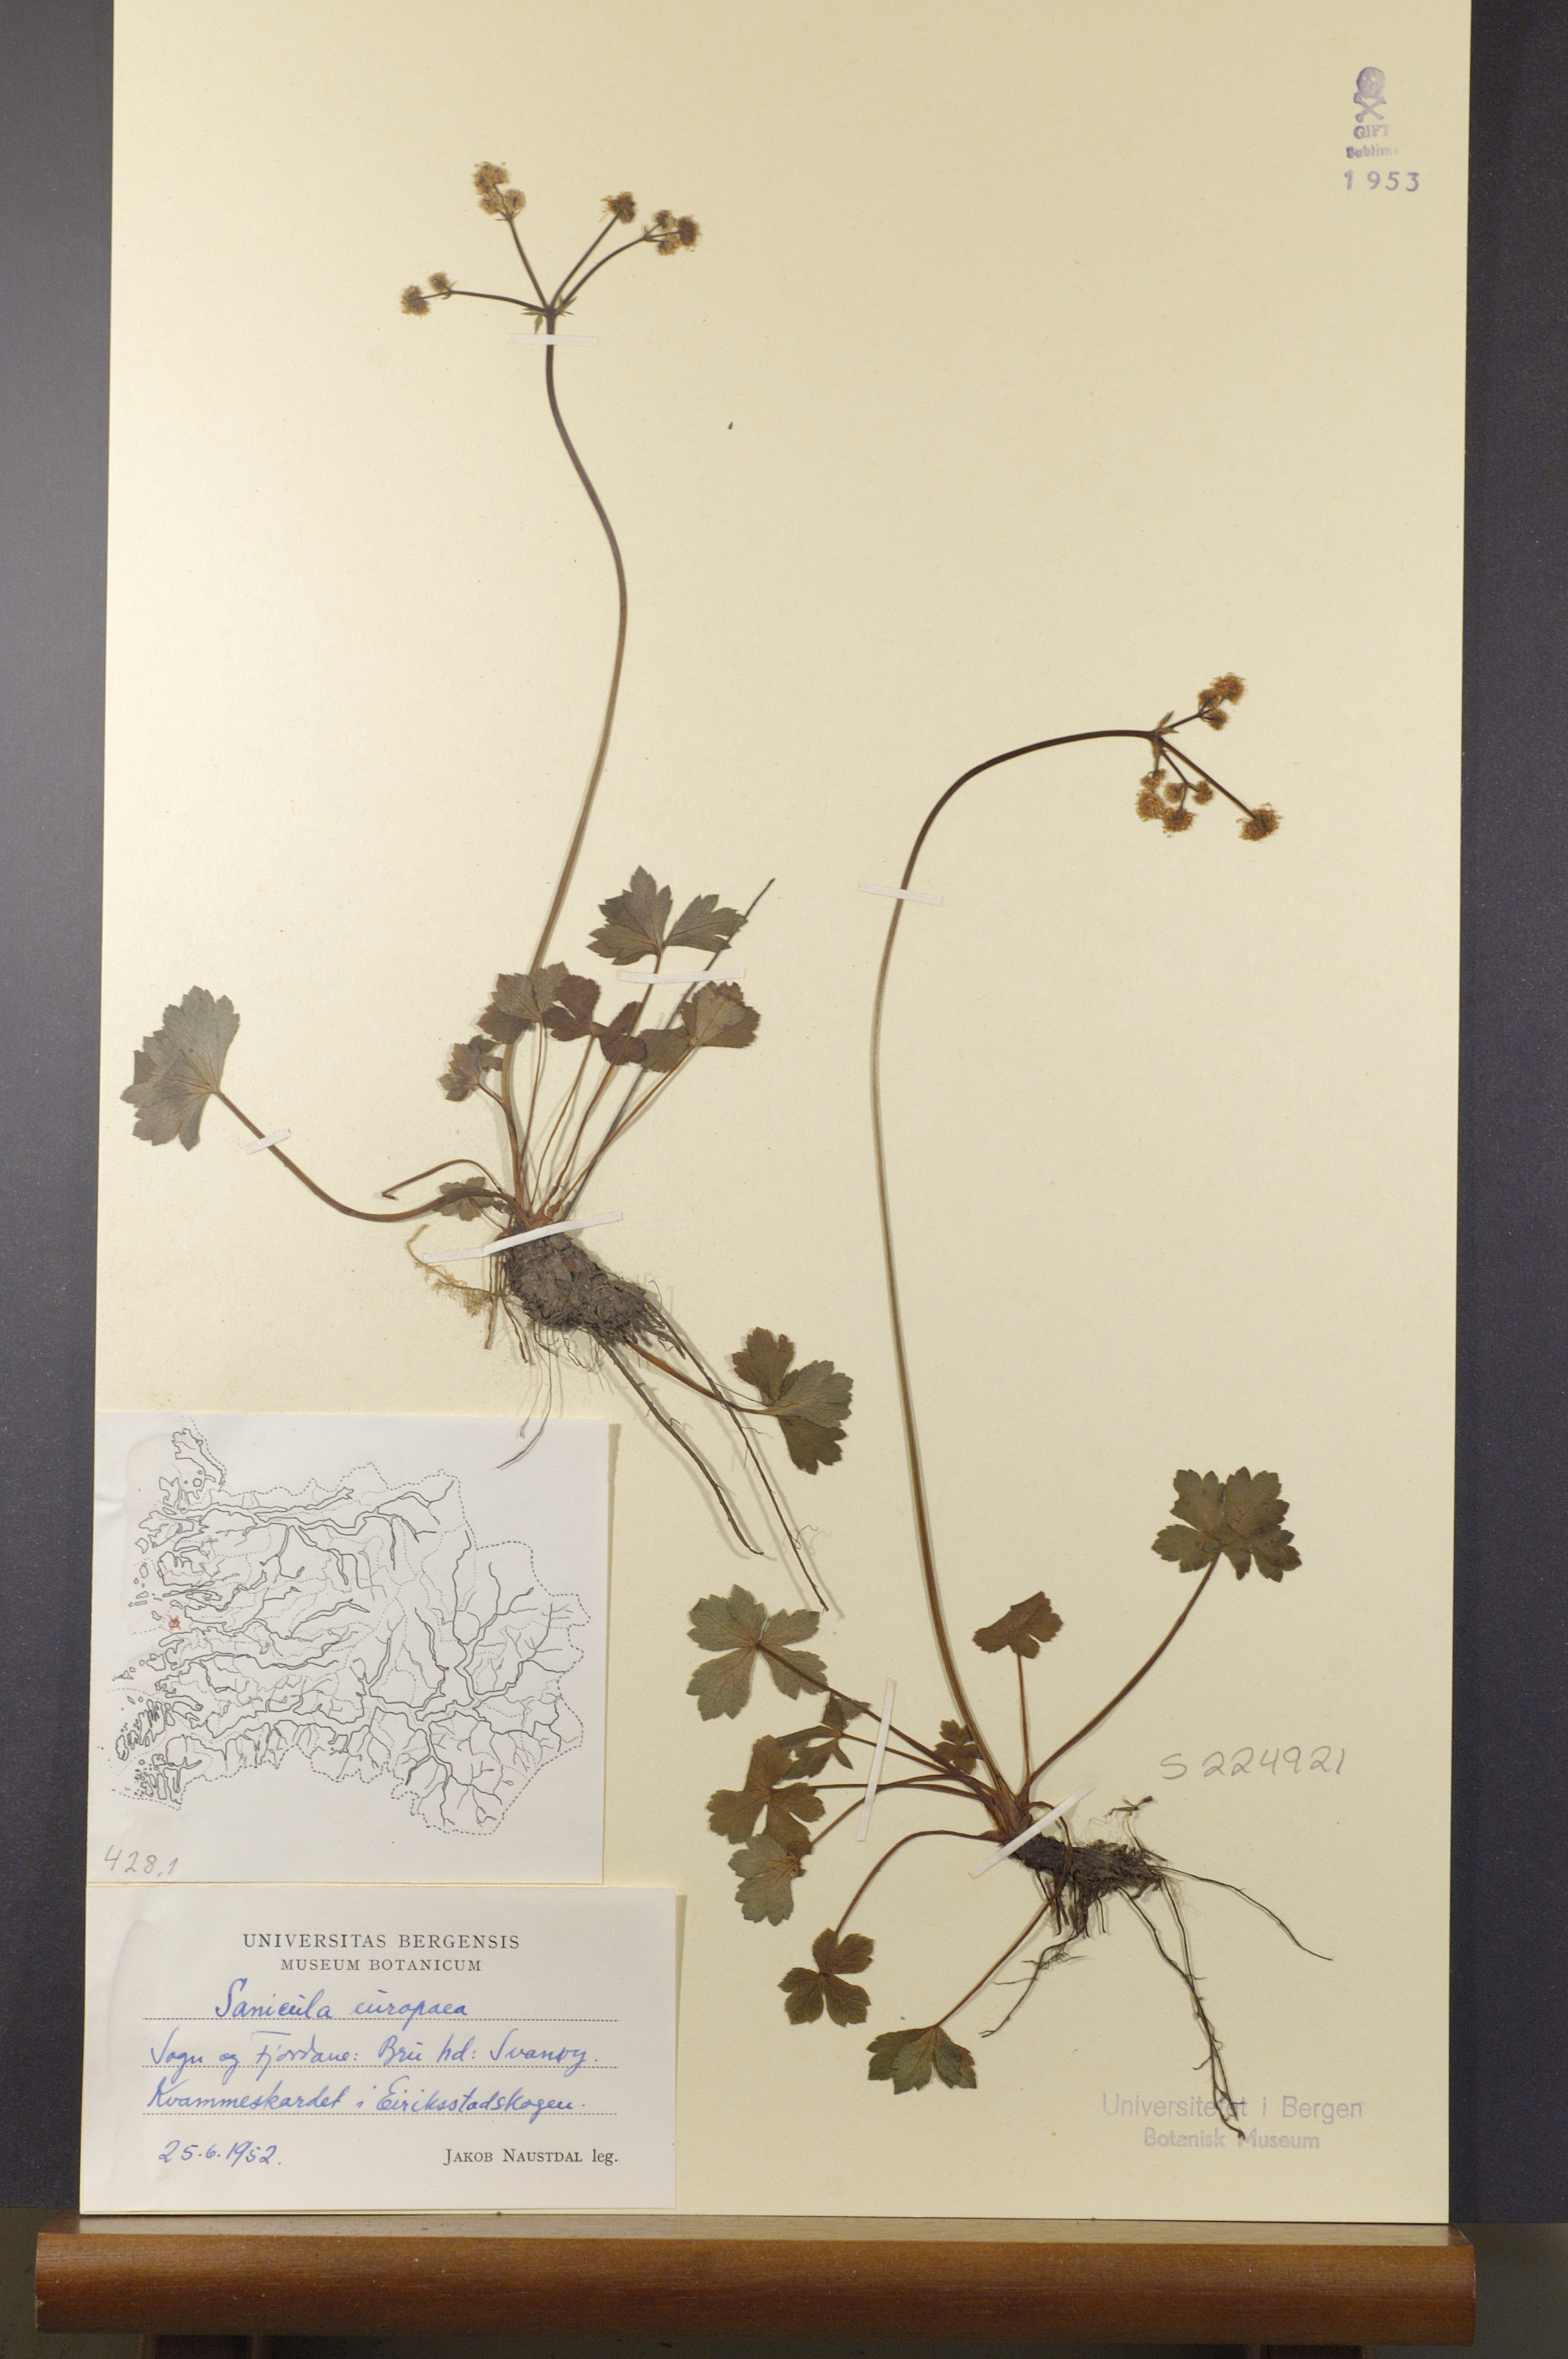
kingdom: Plantae
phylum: Tracheophyta
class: Magnoliopsida
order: Apiales
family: Apiaceae
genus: Sanicula
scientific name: Sanicula europaea
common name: Sanicle
